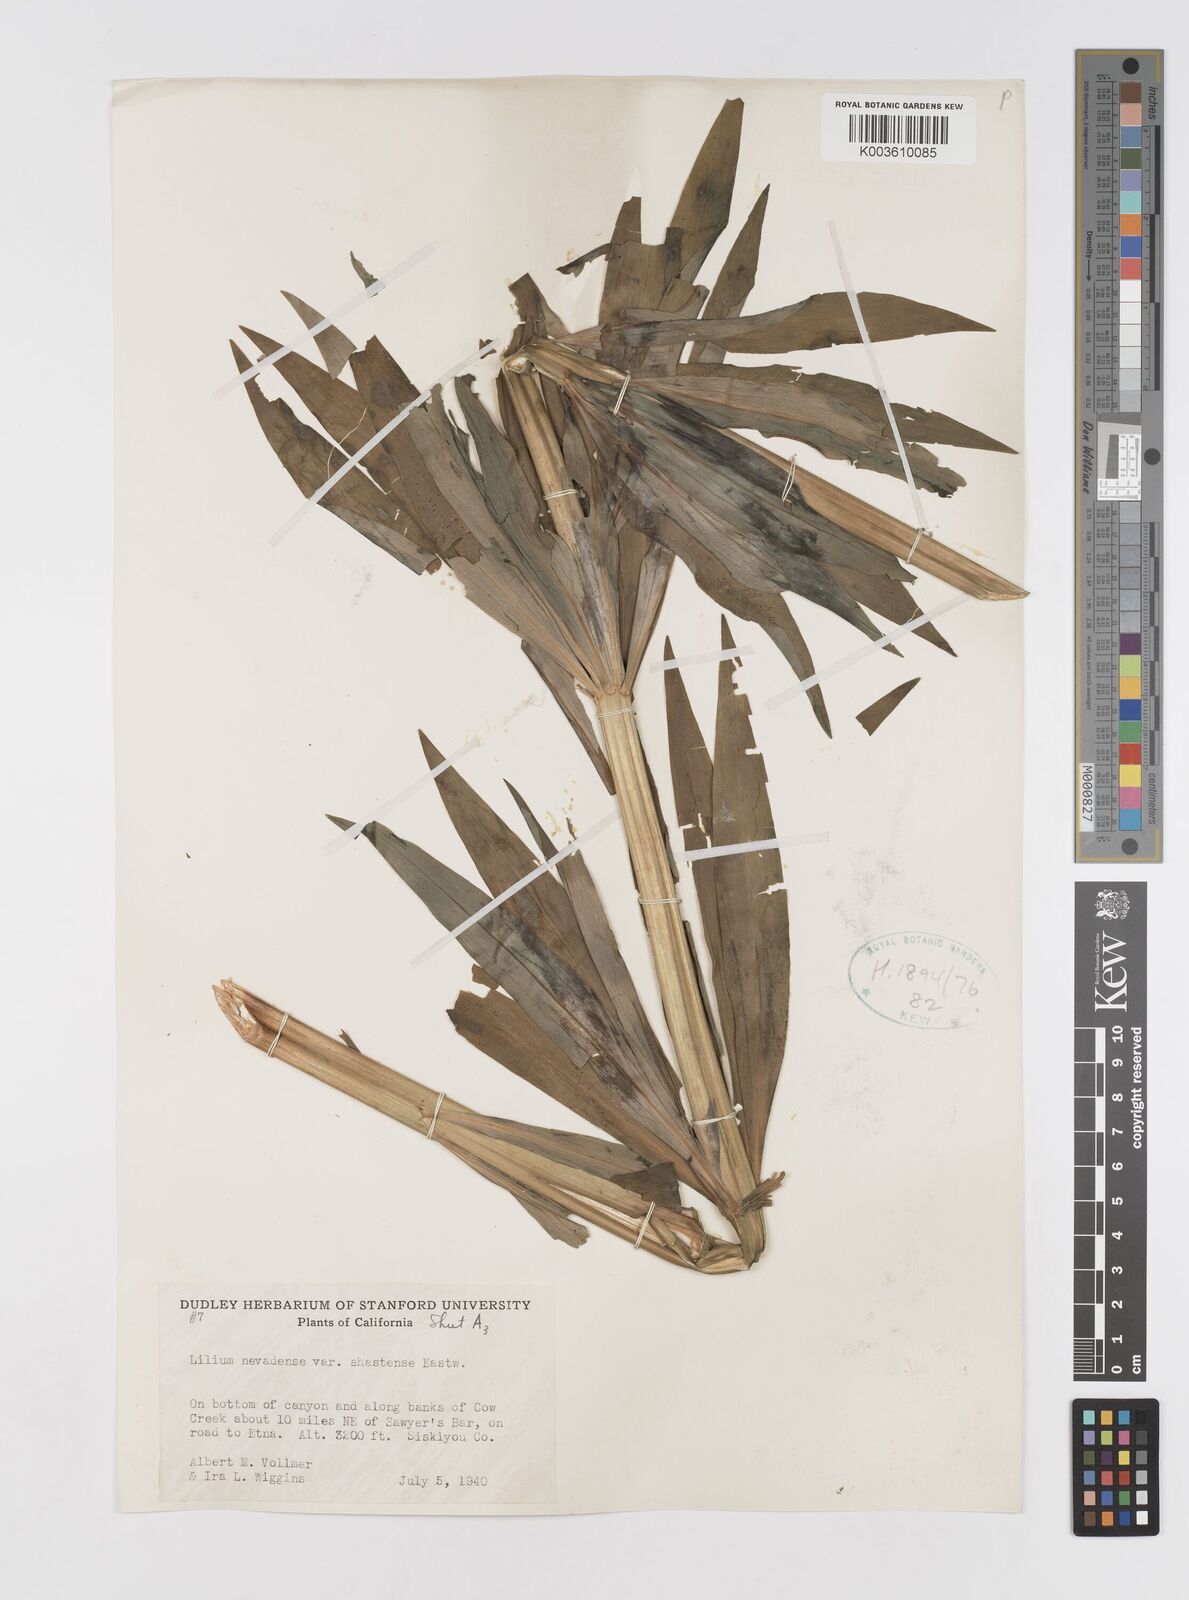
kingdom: Plantae
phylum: Tracheophyta
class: Liliopsida
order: Liliales
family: Liliaceae
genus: Lilium
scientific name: Lilium kelleyanum
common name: Kelley's lily
